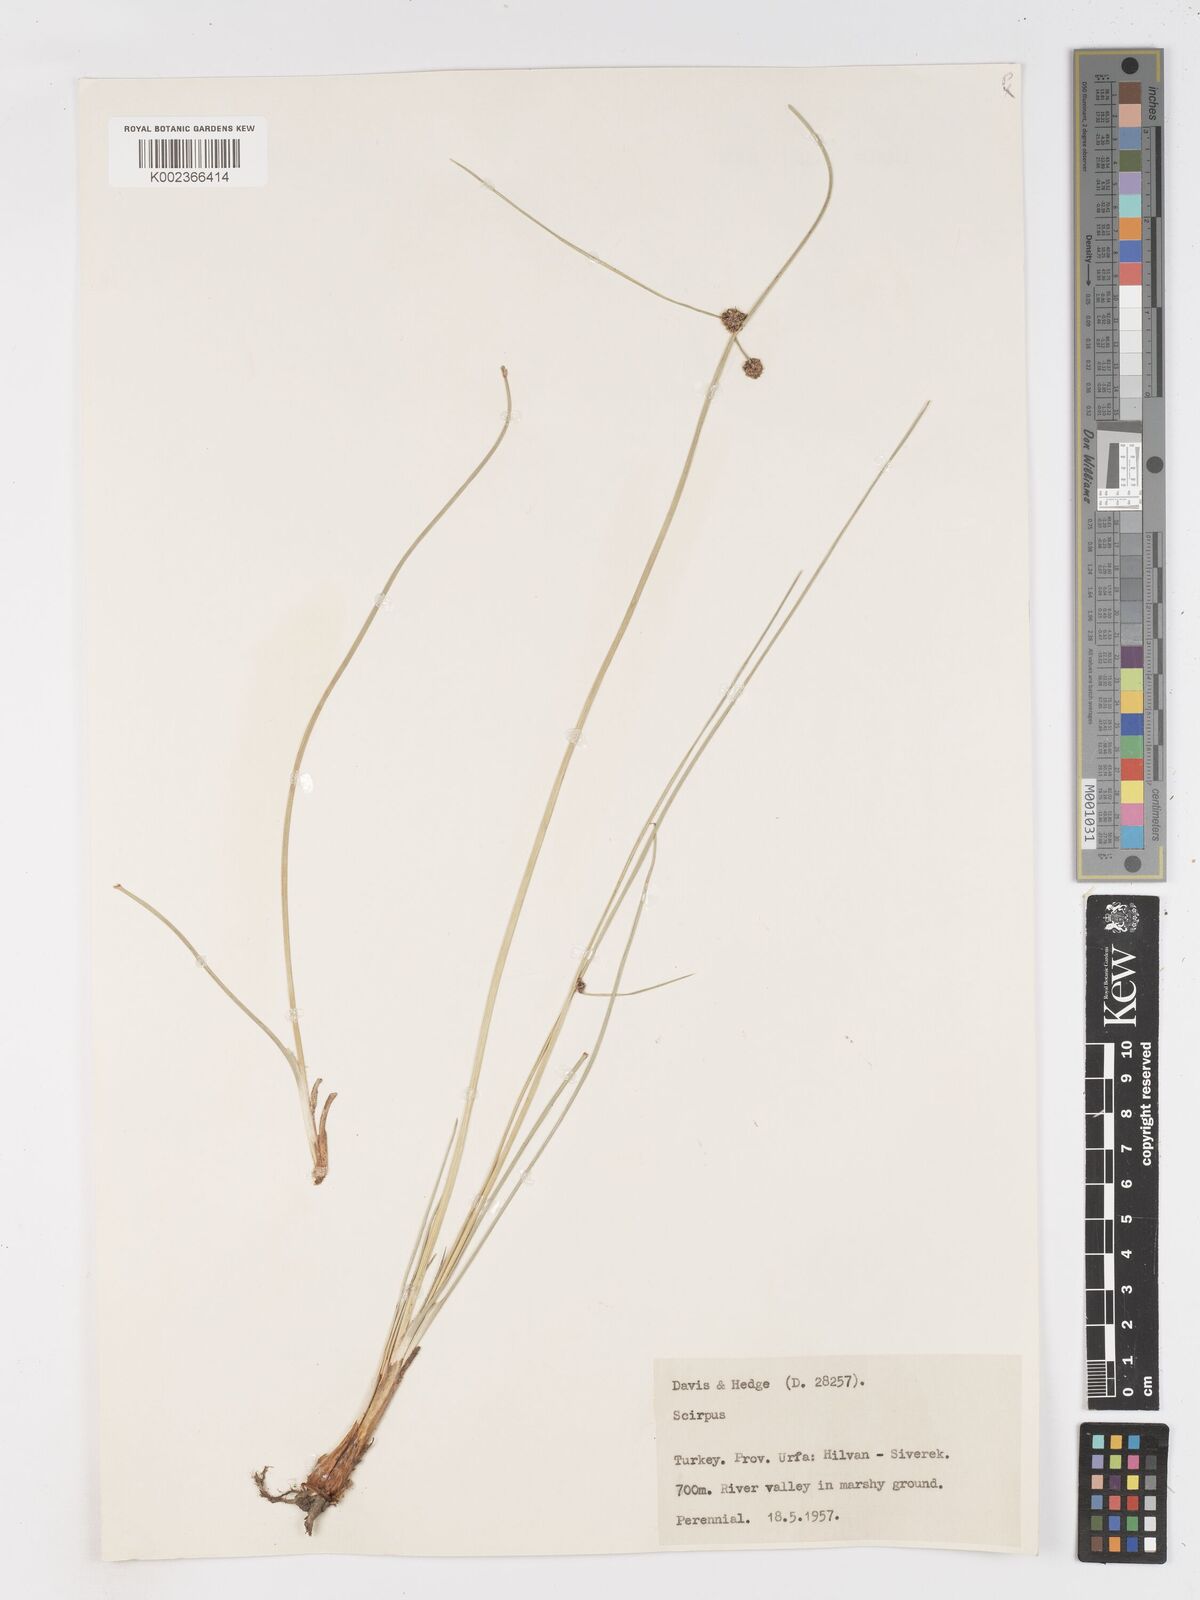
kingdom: Plantae
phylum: Tracheophyta
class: Liliopsida
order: Poales
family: Cyperaceae
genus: Scirpoides
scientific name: Scirpoides holoschoenus
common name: Round-headed club-rush
